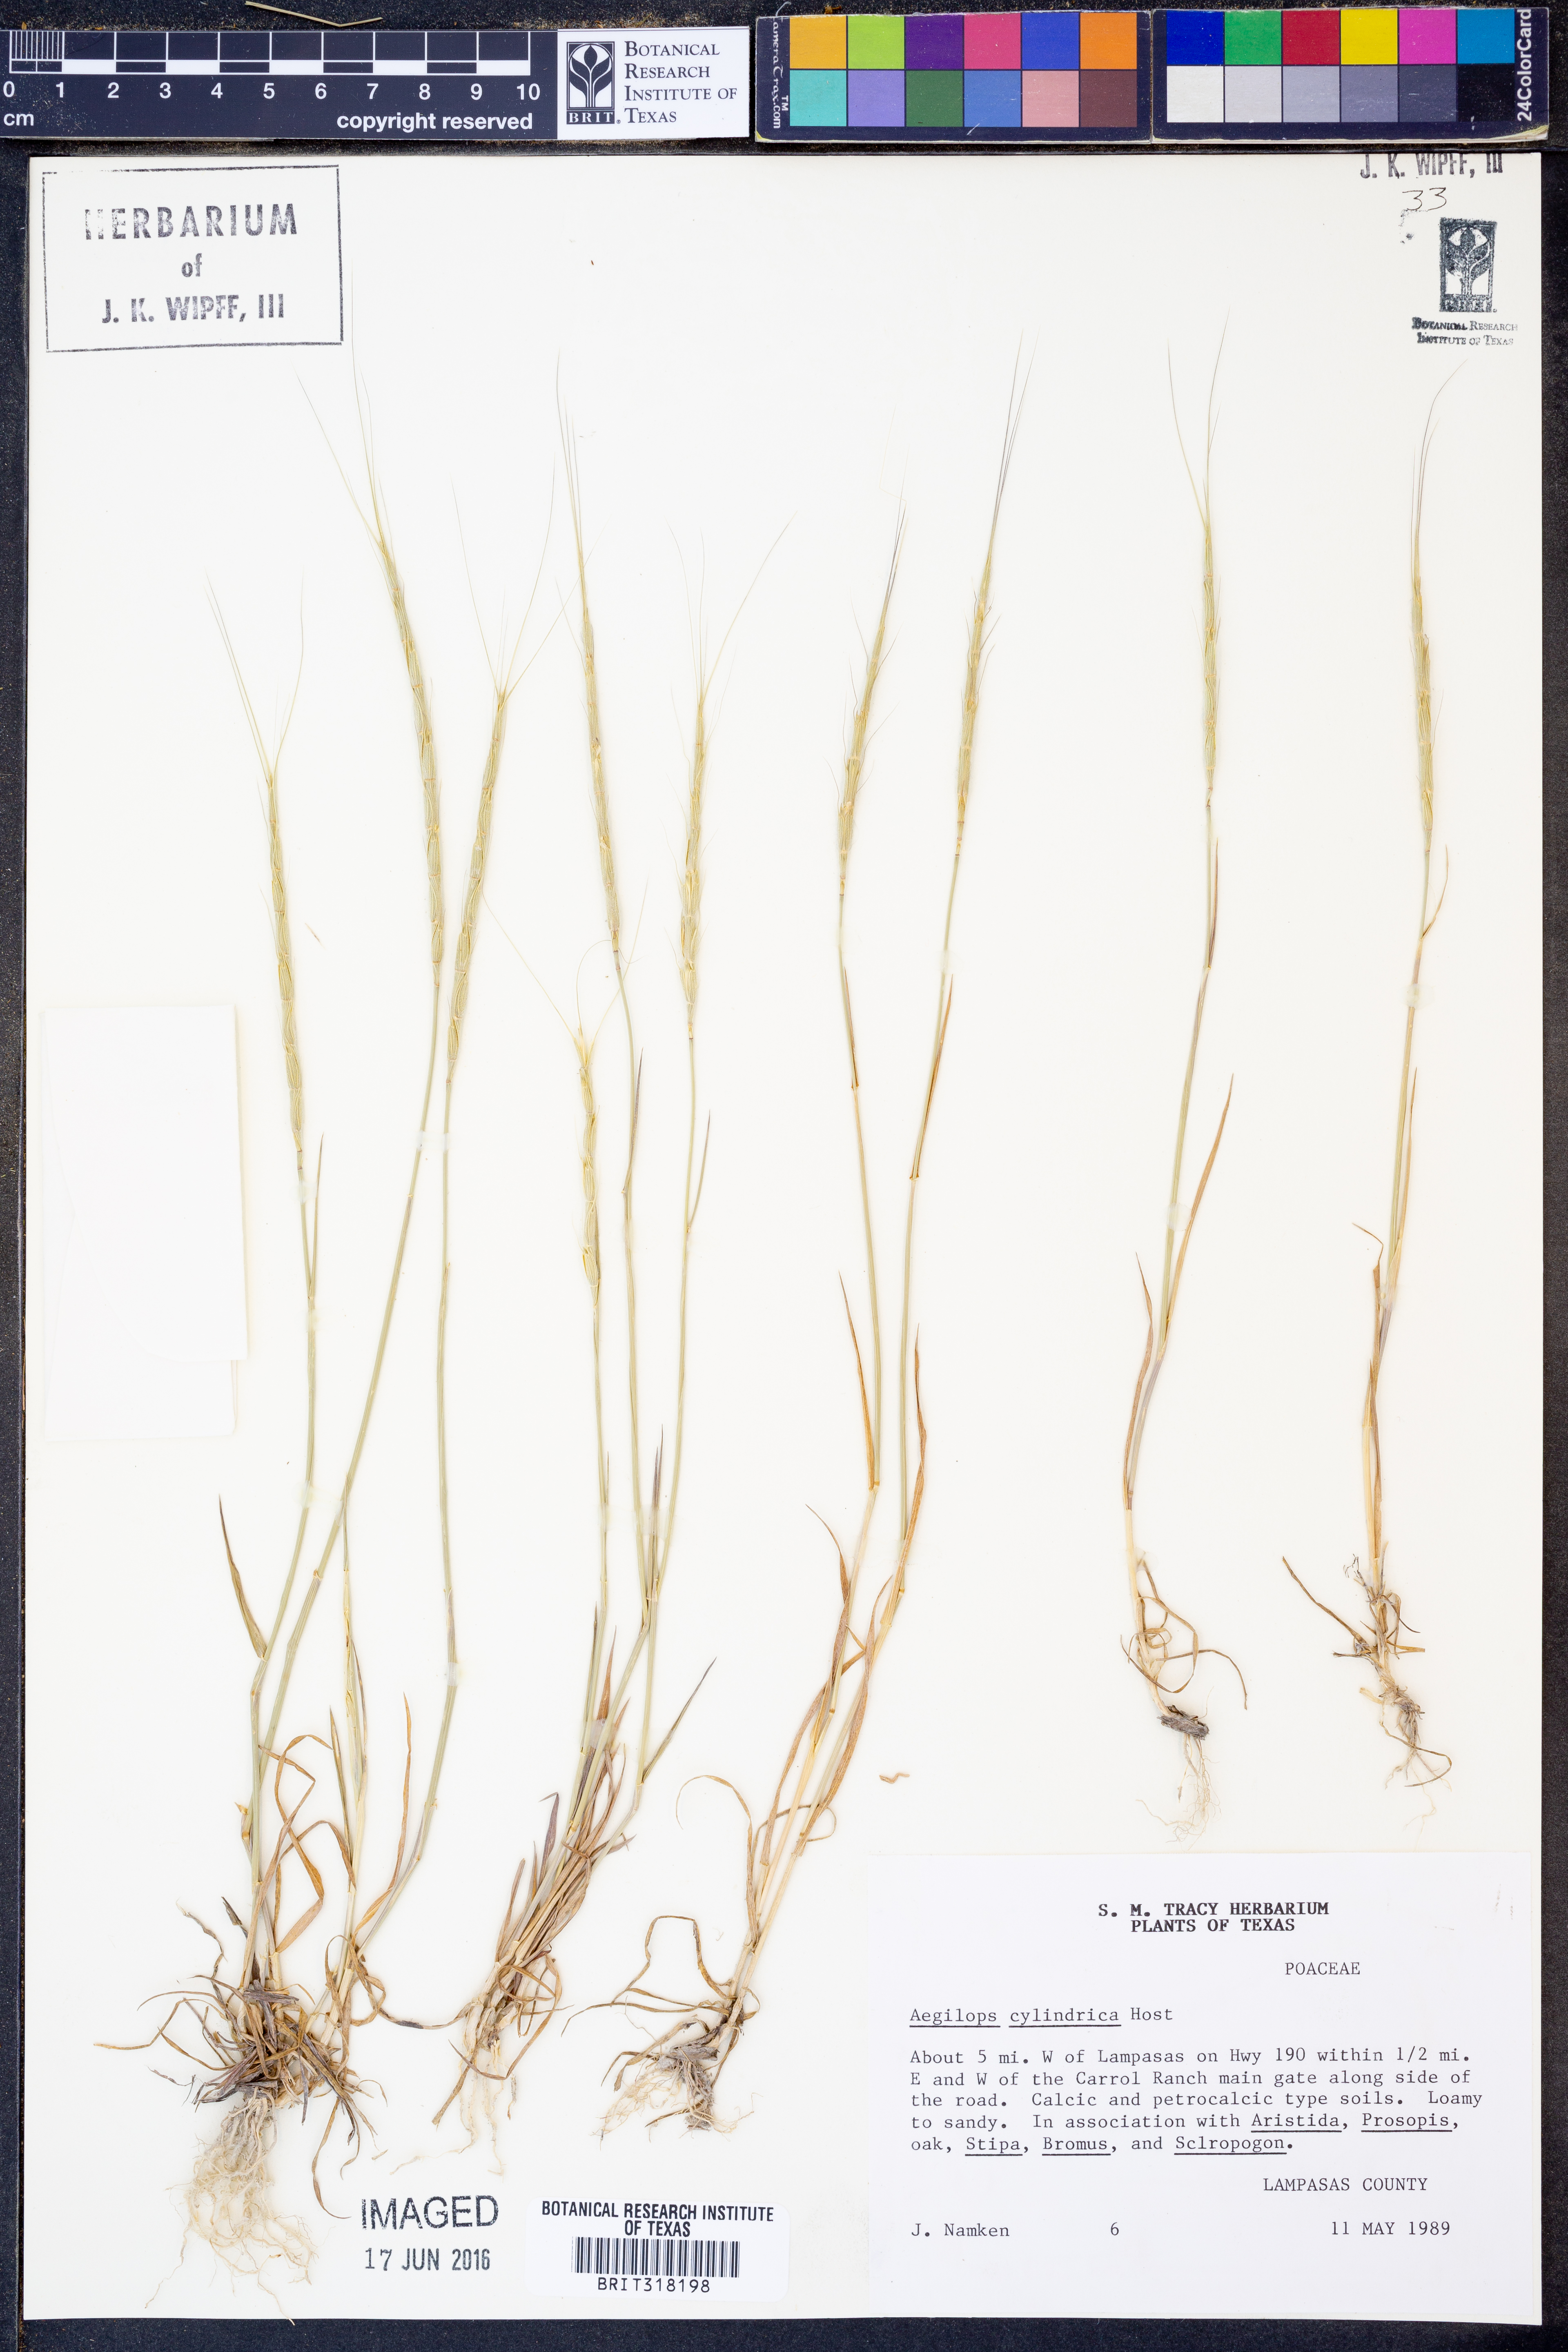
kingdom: Plantae
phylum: Tracheophyta
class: Liliopsida
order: Poales
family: Poaceae
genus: Aegilops
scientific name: Aegilops cylindrica
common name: Jointed goatgrass
